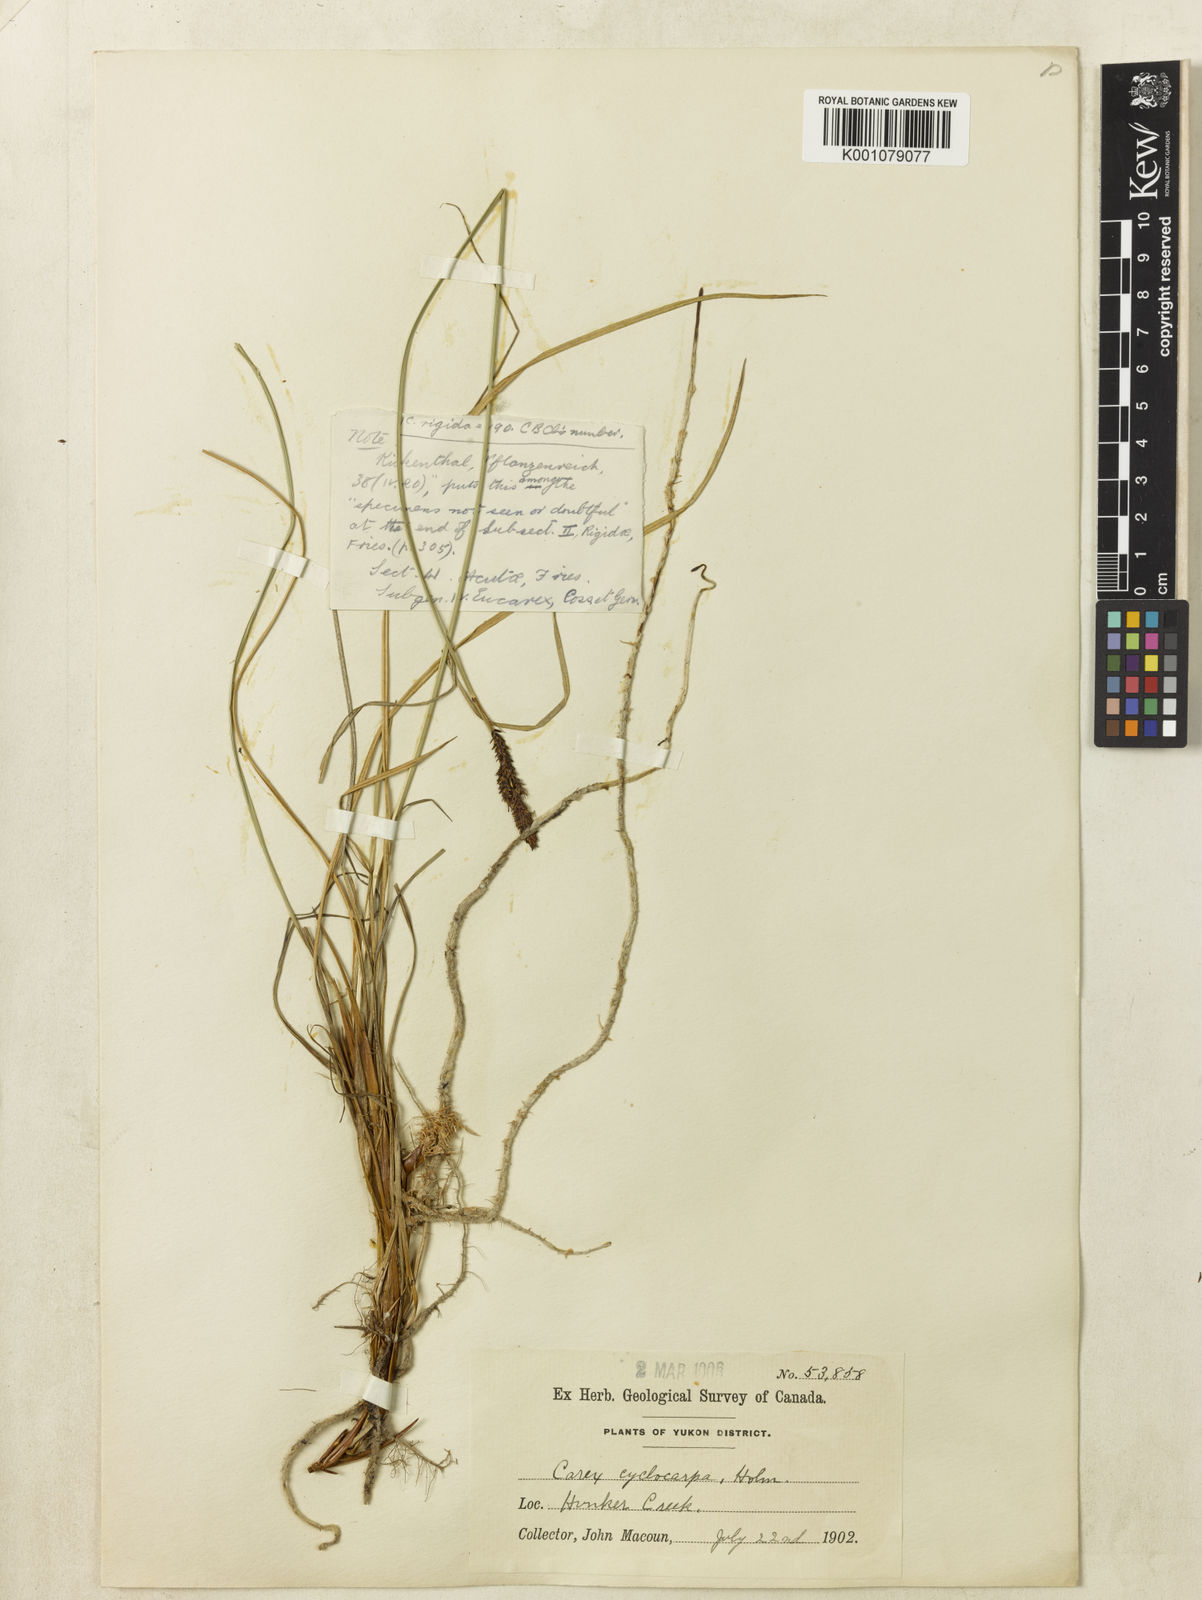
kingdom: Plantae
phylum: Tracheophyta
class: Liliopsida
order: Poales
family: Cyperaceae
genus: Carex
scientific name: Carex bigelowii
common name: Stiff sedge
